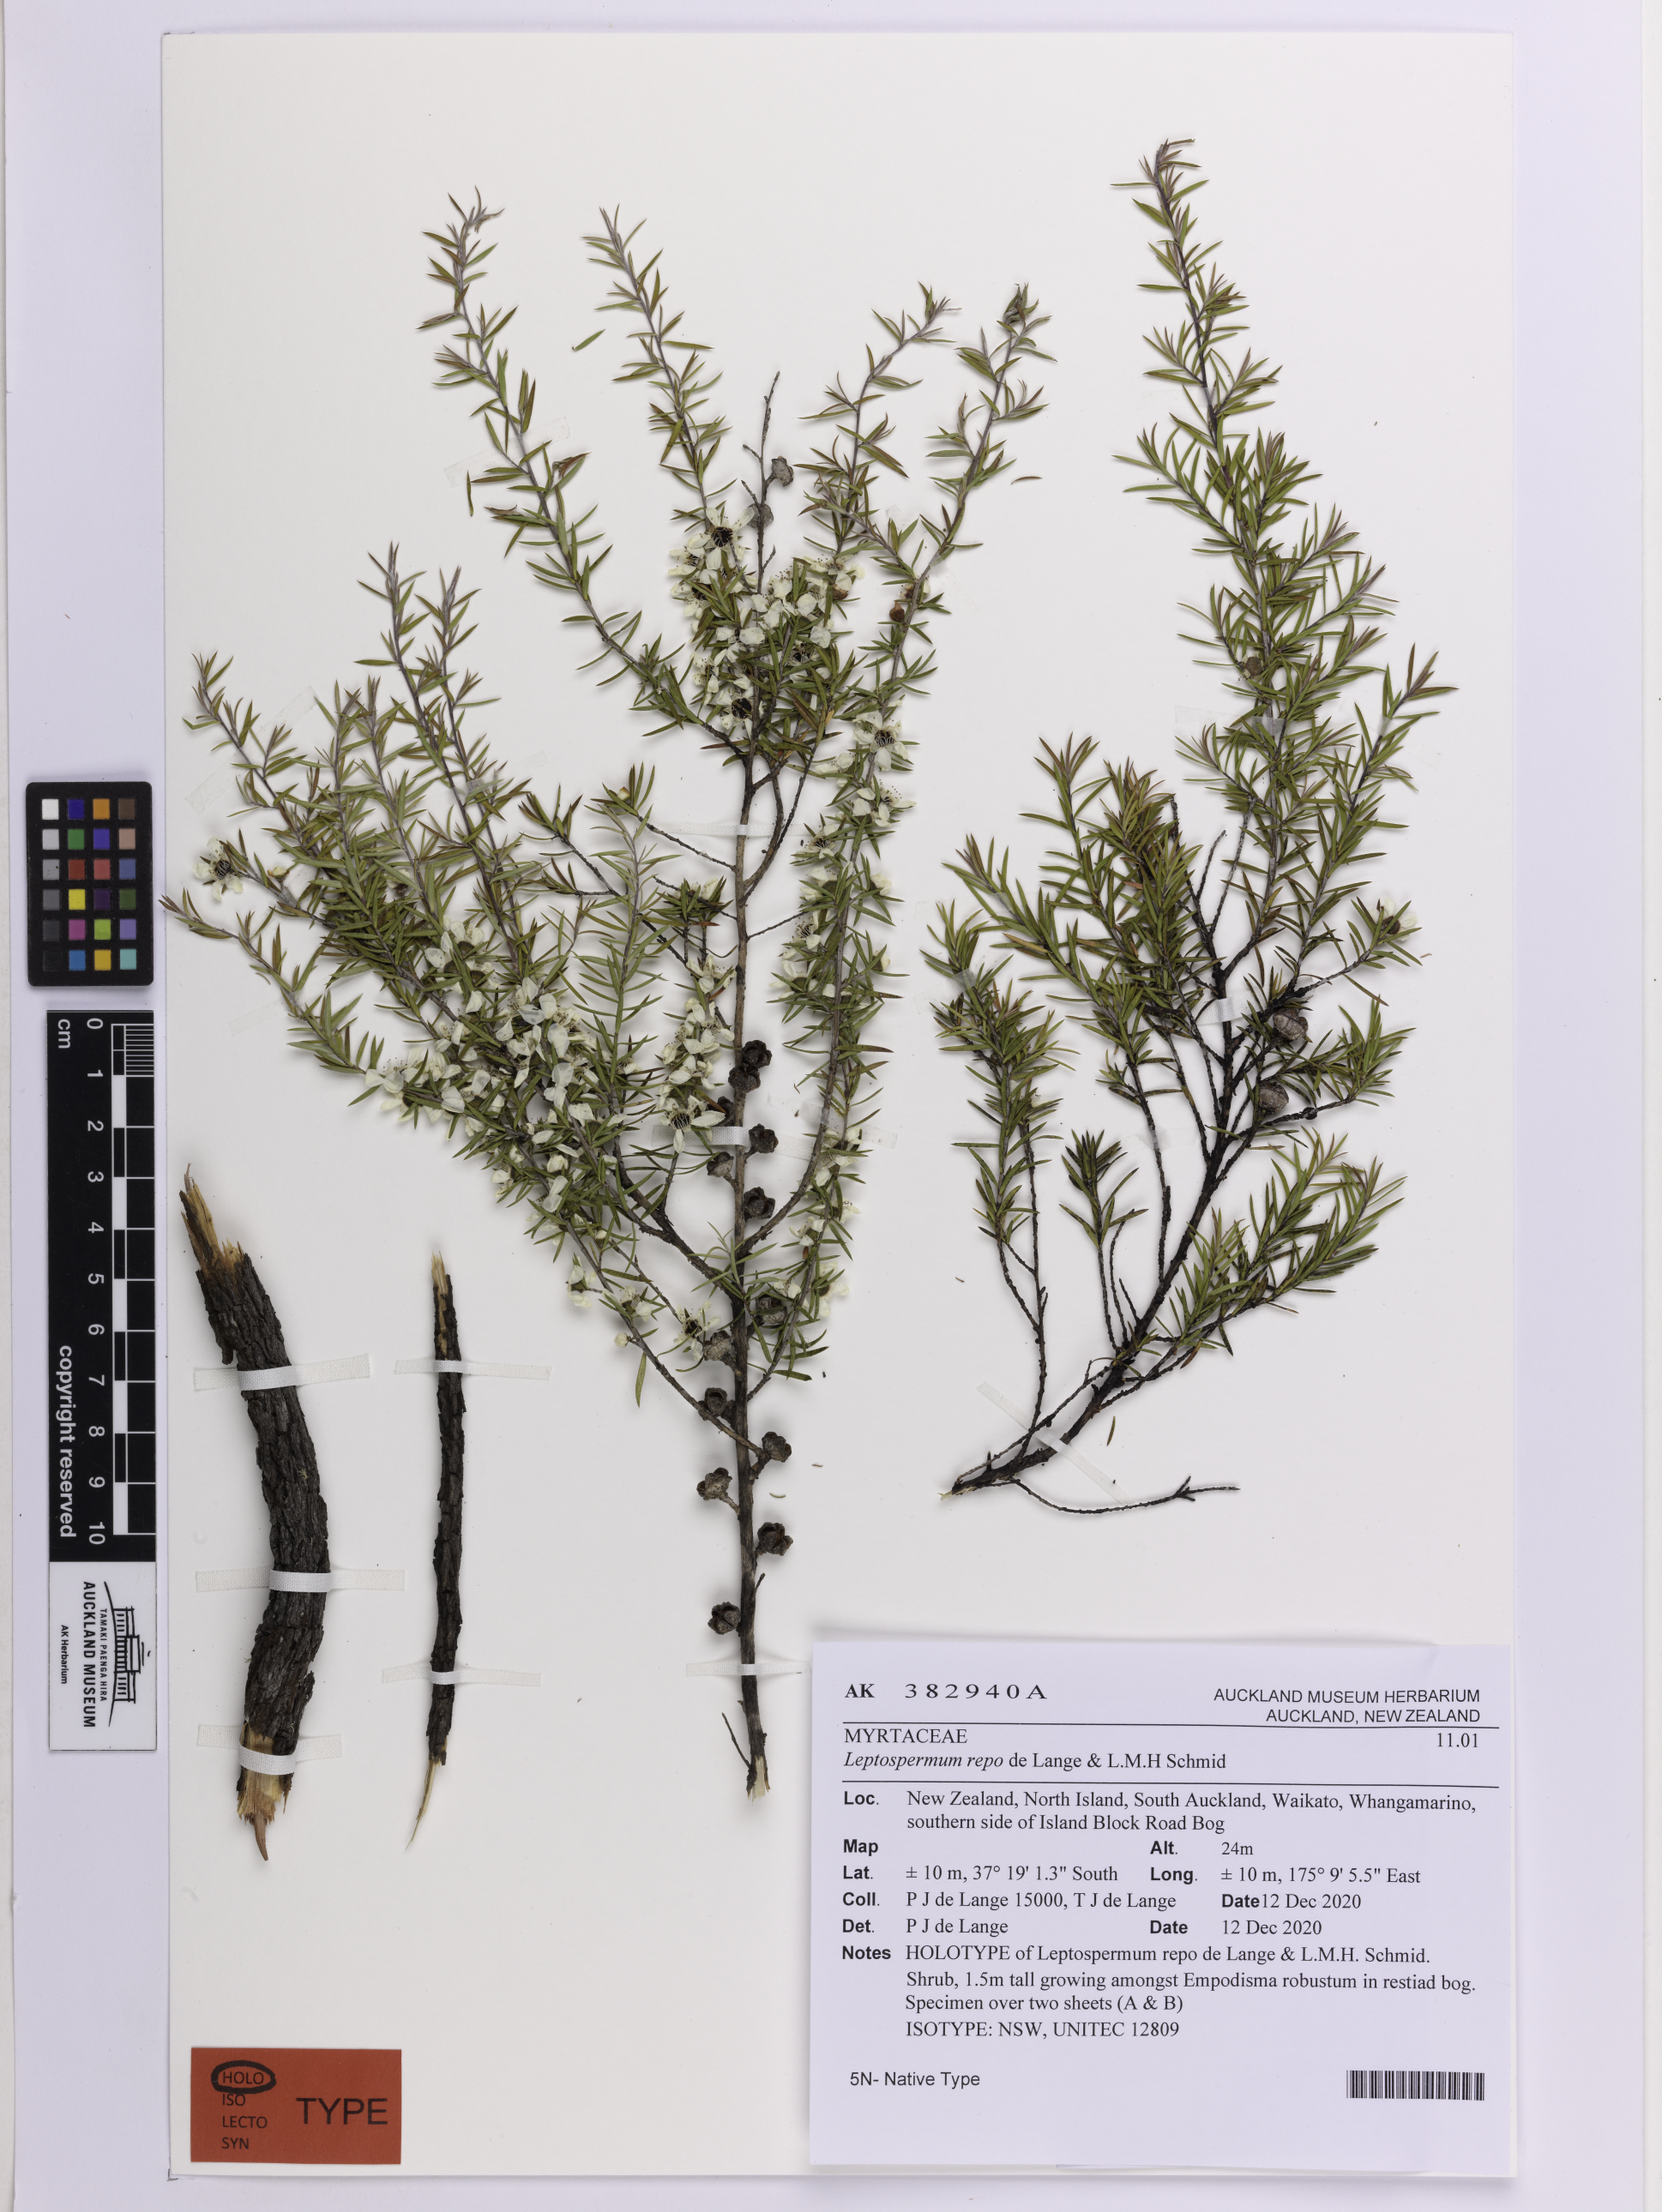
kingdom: Plantae
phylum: Tracheophyta
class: Magnoliopsida
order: Myrtales
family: Myrtaceae
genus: Leptospermum
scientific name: Leptospermum repo
